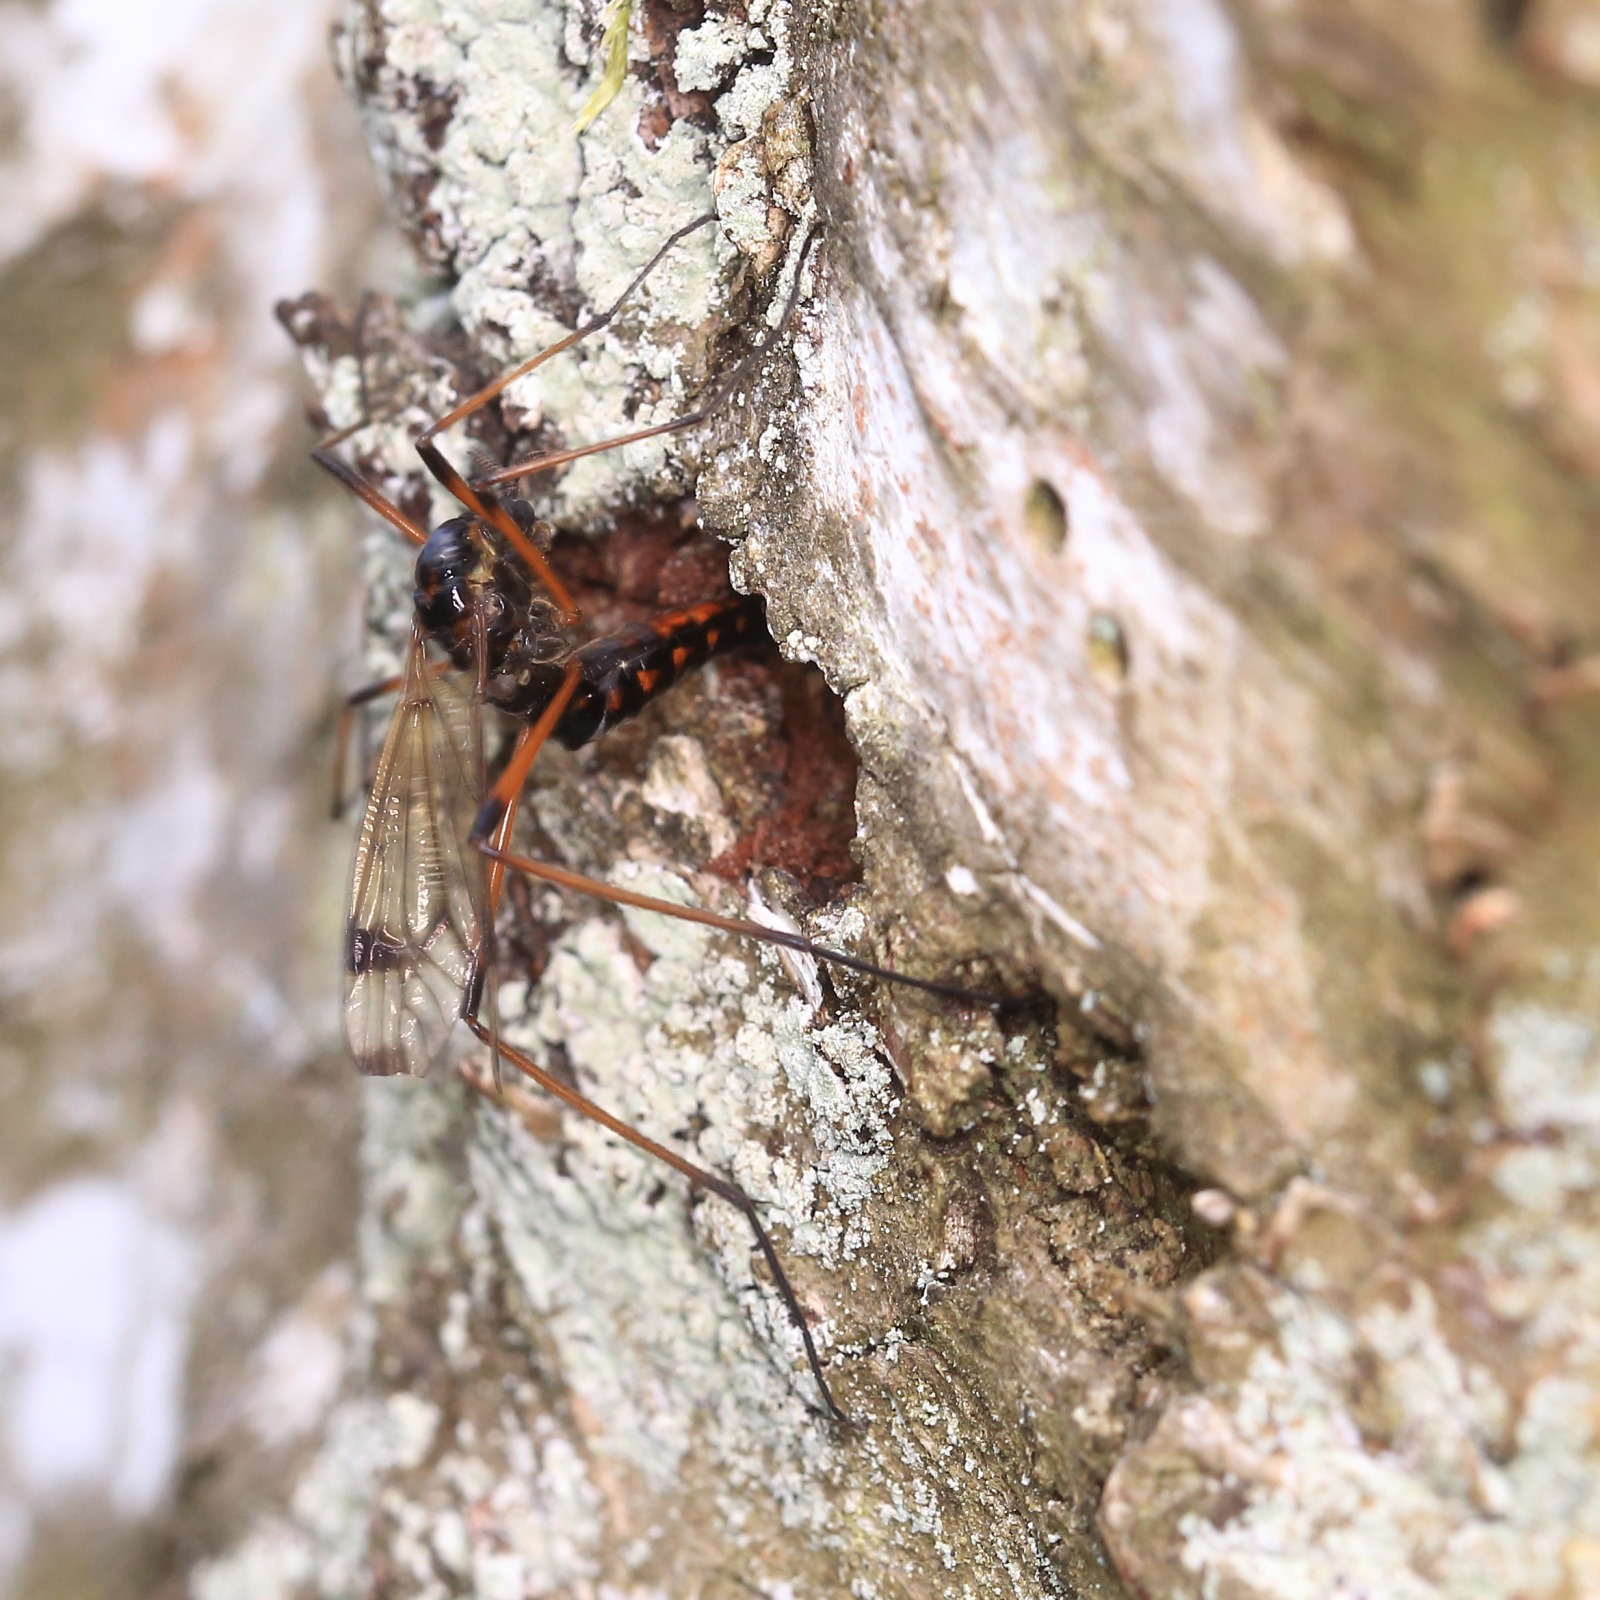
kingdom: Animalia
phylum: Arthropoda
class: Insecta
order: Diptera
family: Tipulidae
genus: Dictenidia
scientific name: Dictenidia bimaculata
